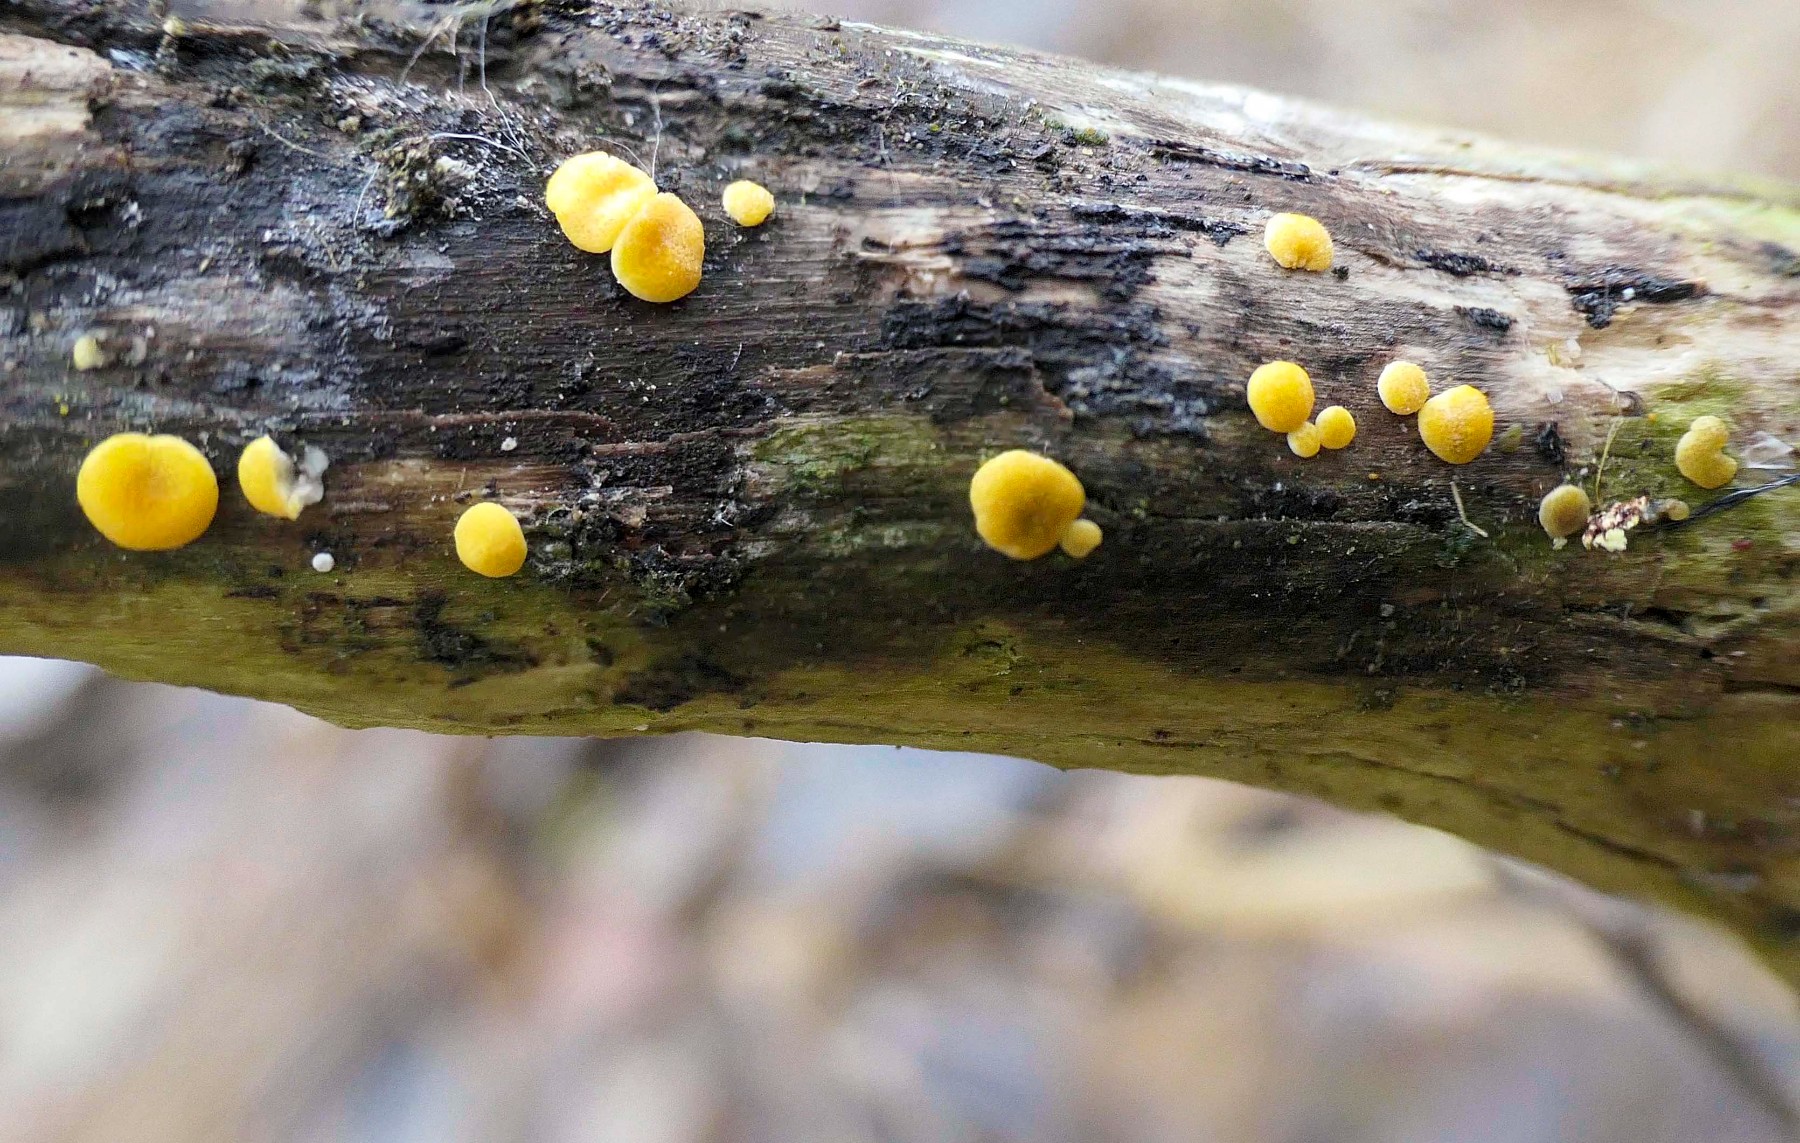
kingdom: Fungi
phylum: Ascomycota
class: Sordariomycetes
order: Hypocreales
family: Hypocreaceae
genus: Trichoderma
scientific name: Trichoderma aureoviride
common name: æggegul kødkerne
